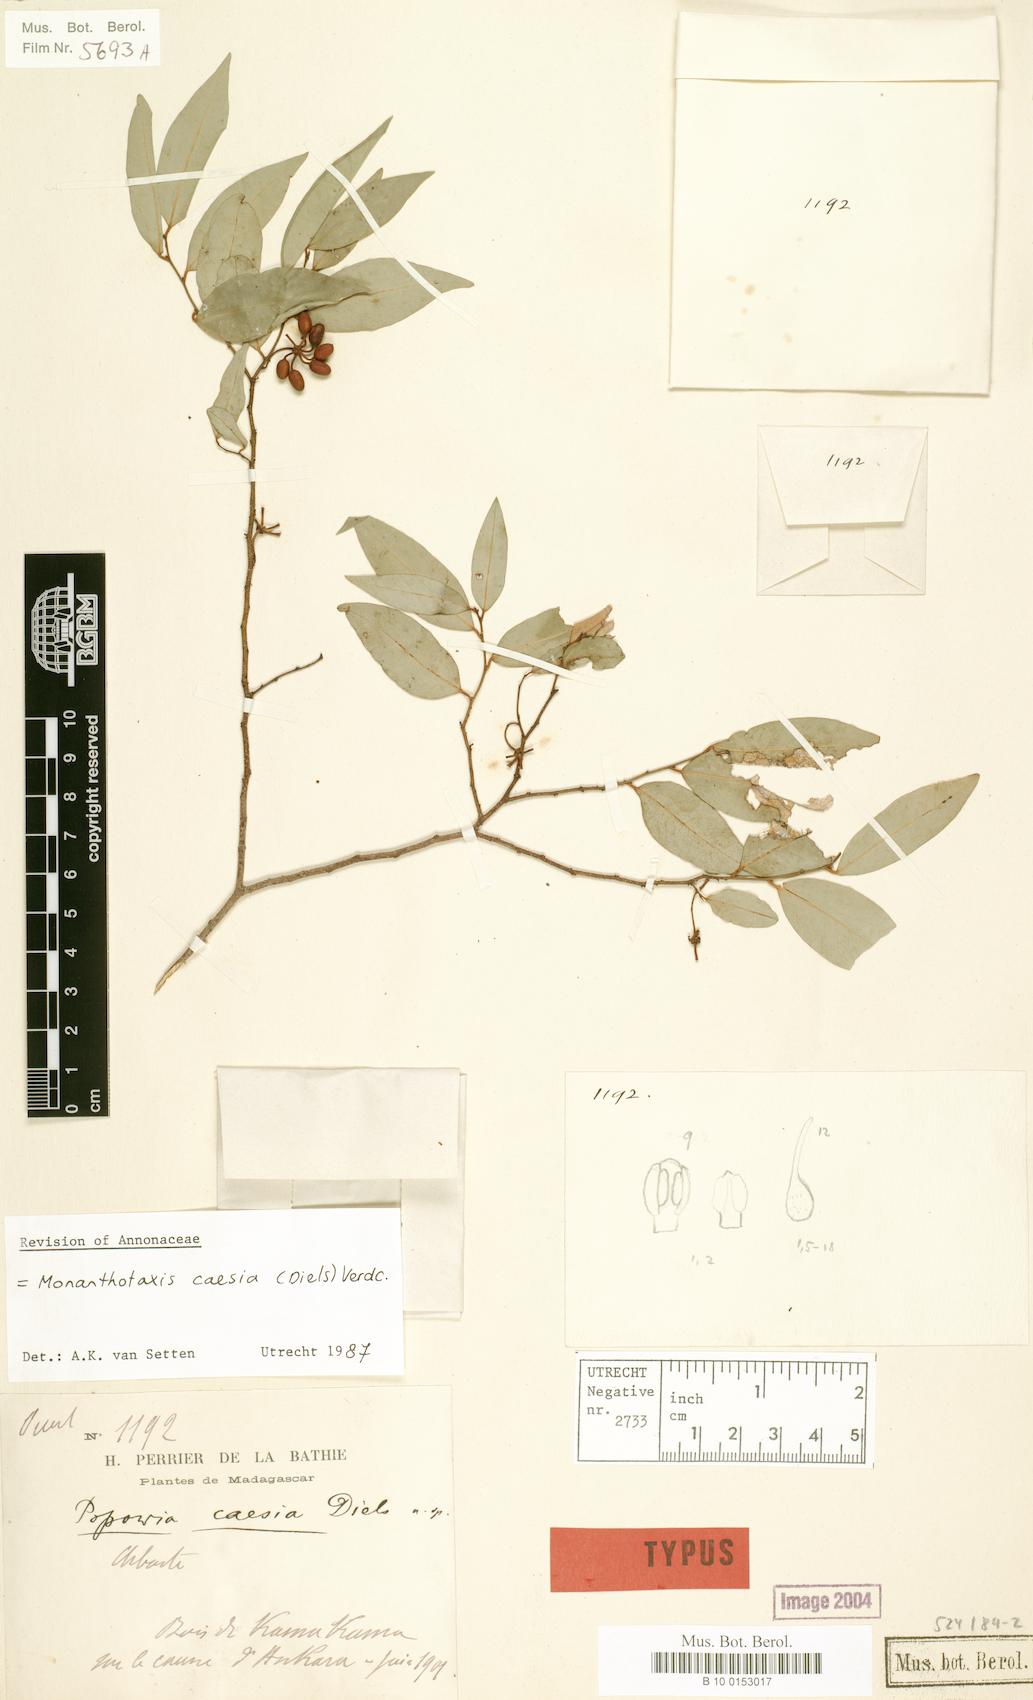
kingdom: Plantae
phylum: Tracheophyta
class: Magnoliopsida
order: Magnoliales
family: Annonaceae
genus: Monanthotaxis
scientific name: Monanthotaxis caesia
